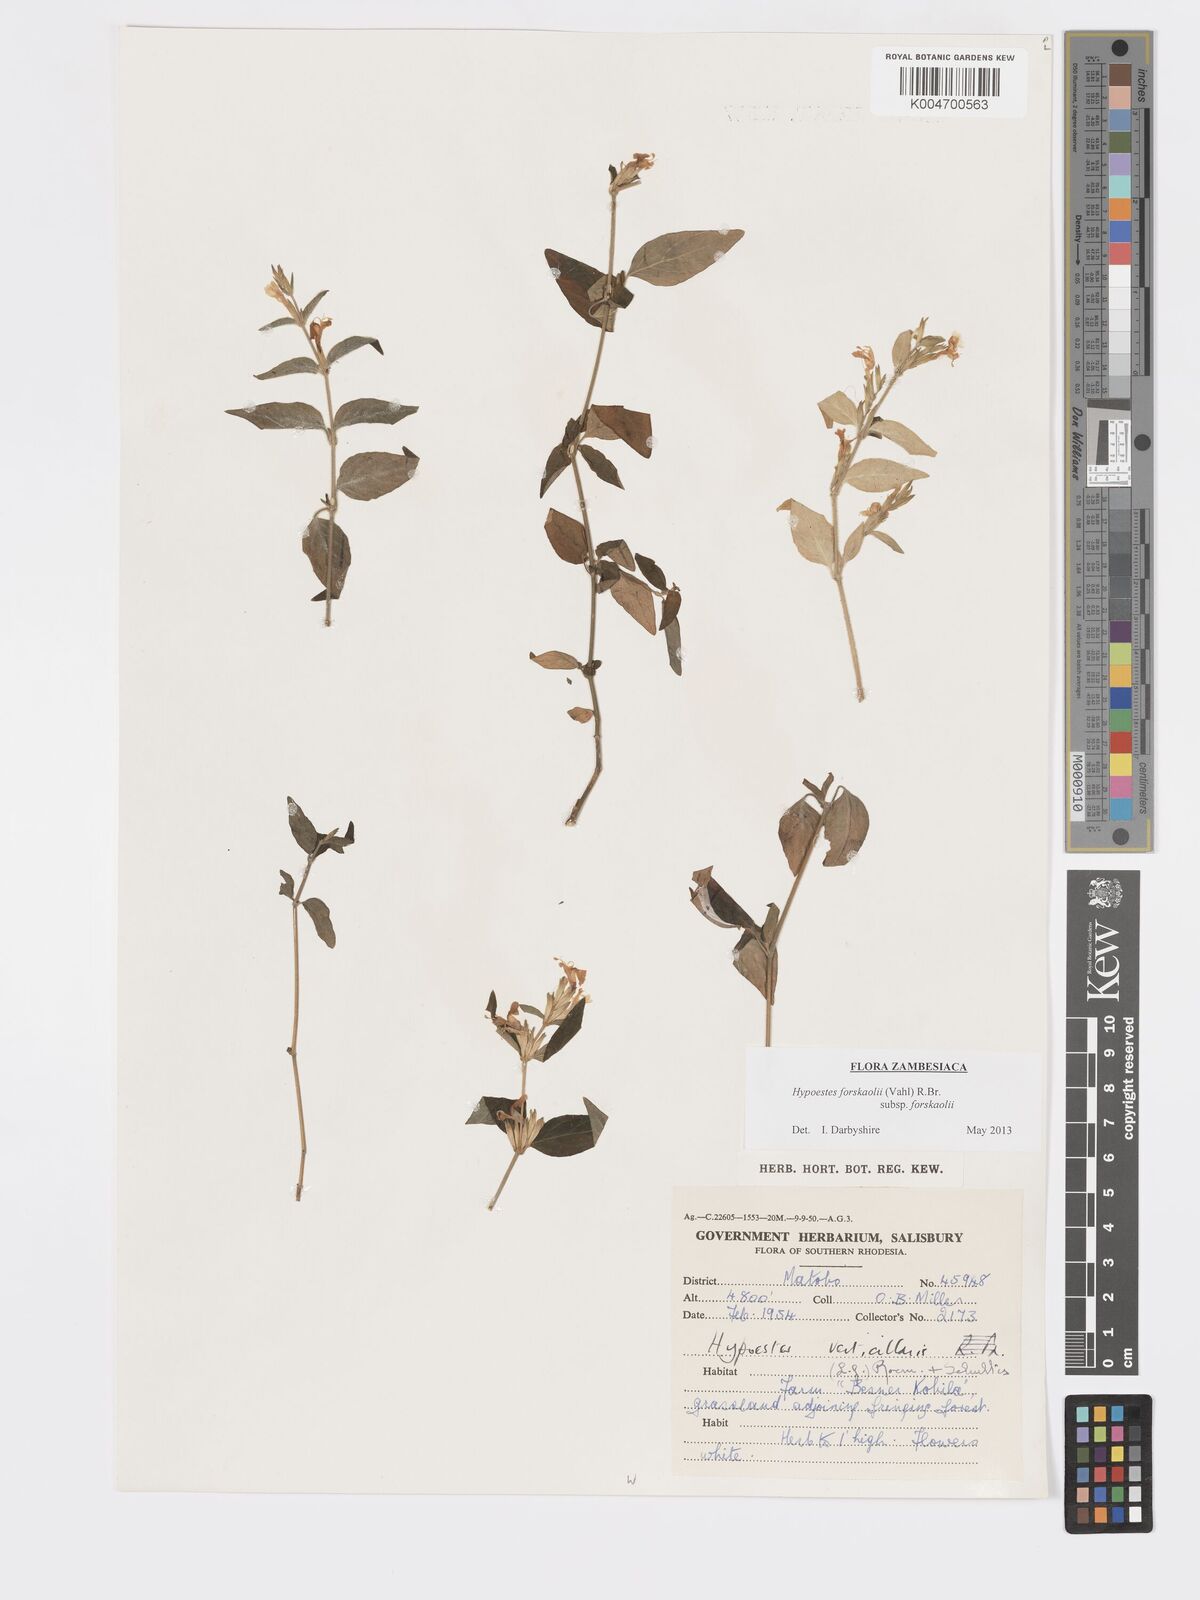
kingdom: Plantae
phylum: Tracheophyta
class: Magnoliopsida
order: Lamiales
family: Acanthaceae
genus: Hypoestes
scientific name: Hypoestes forskaolii
